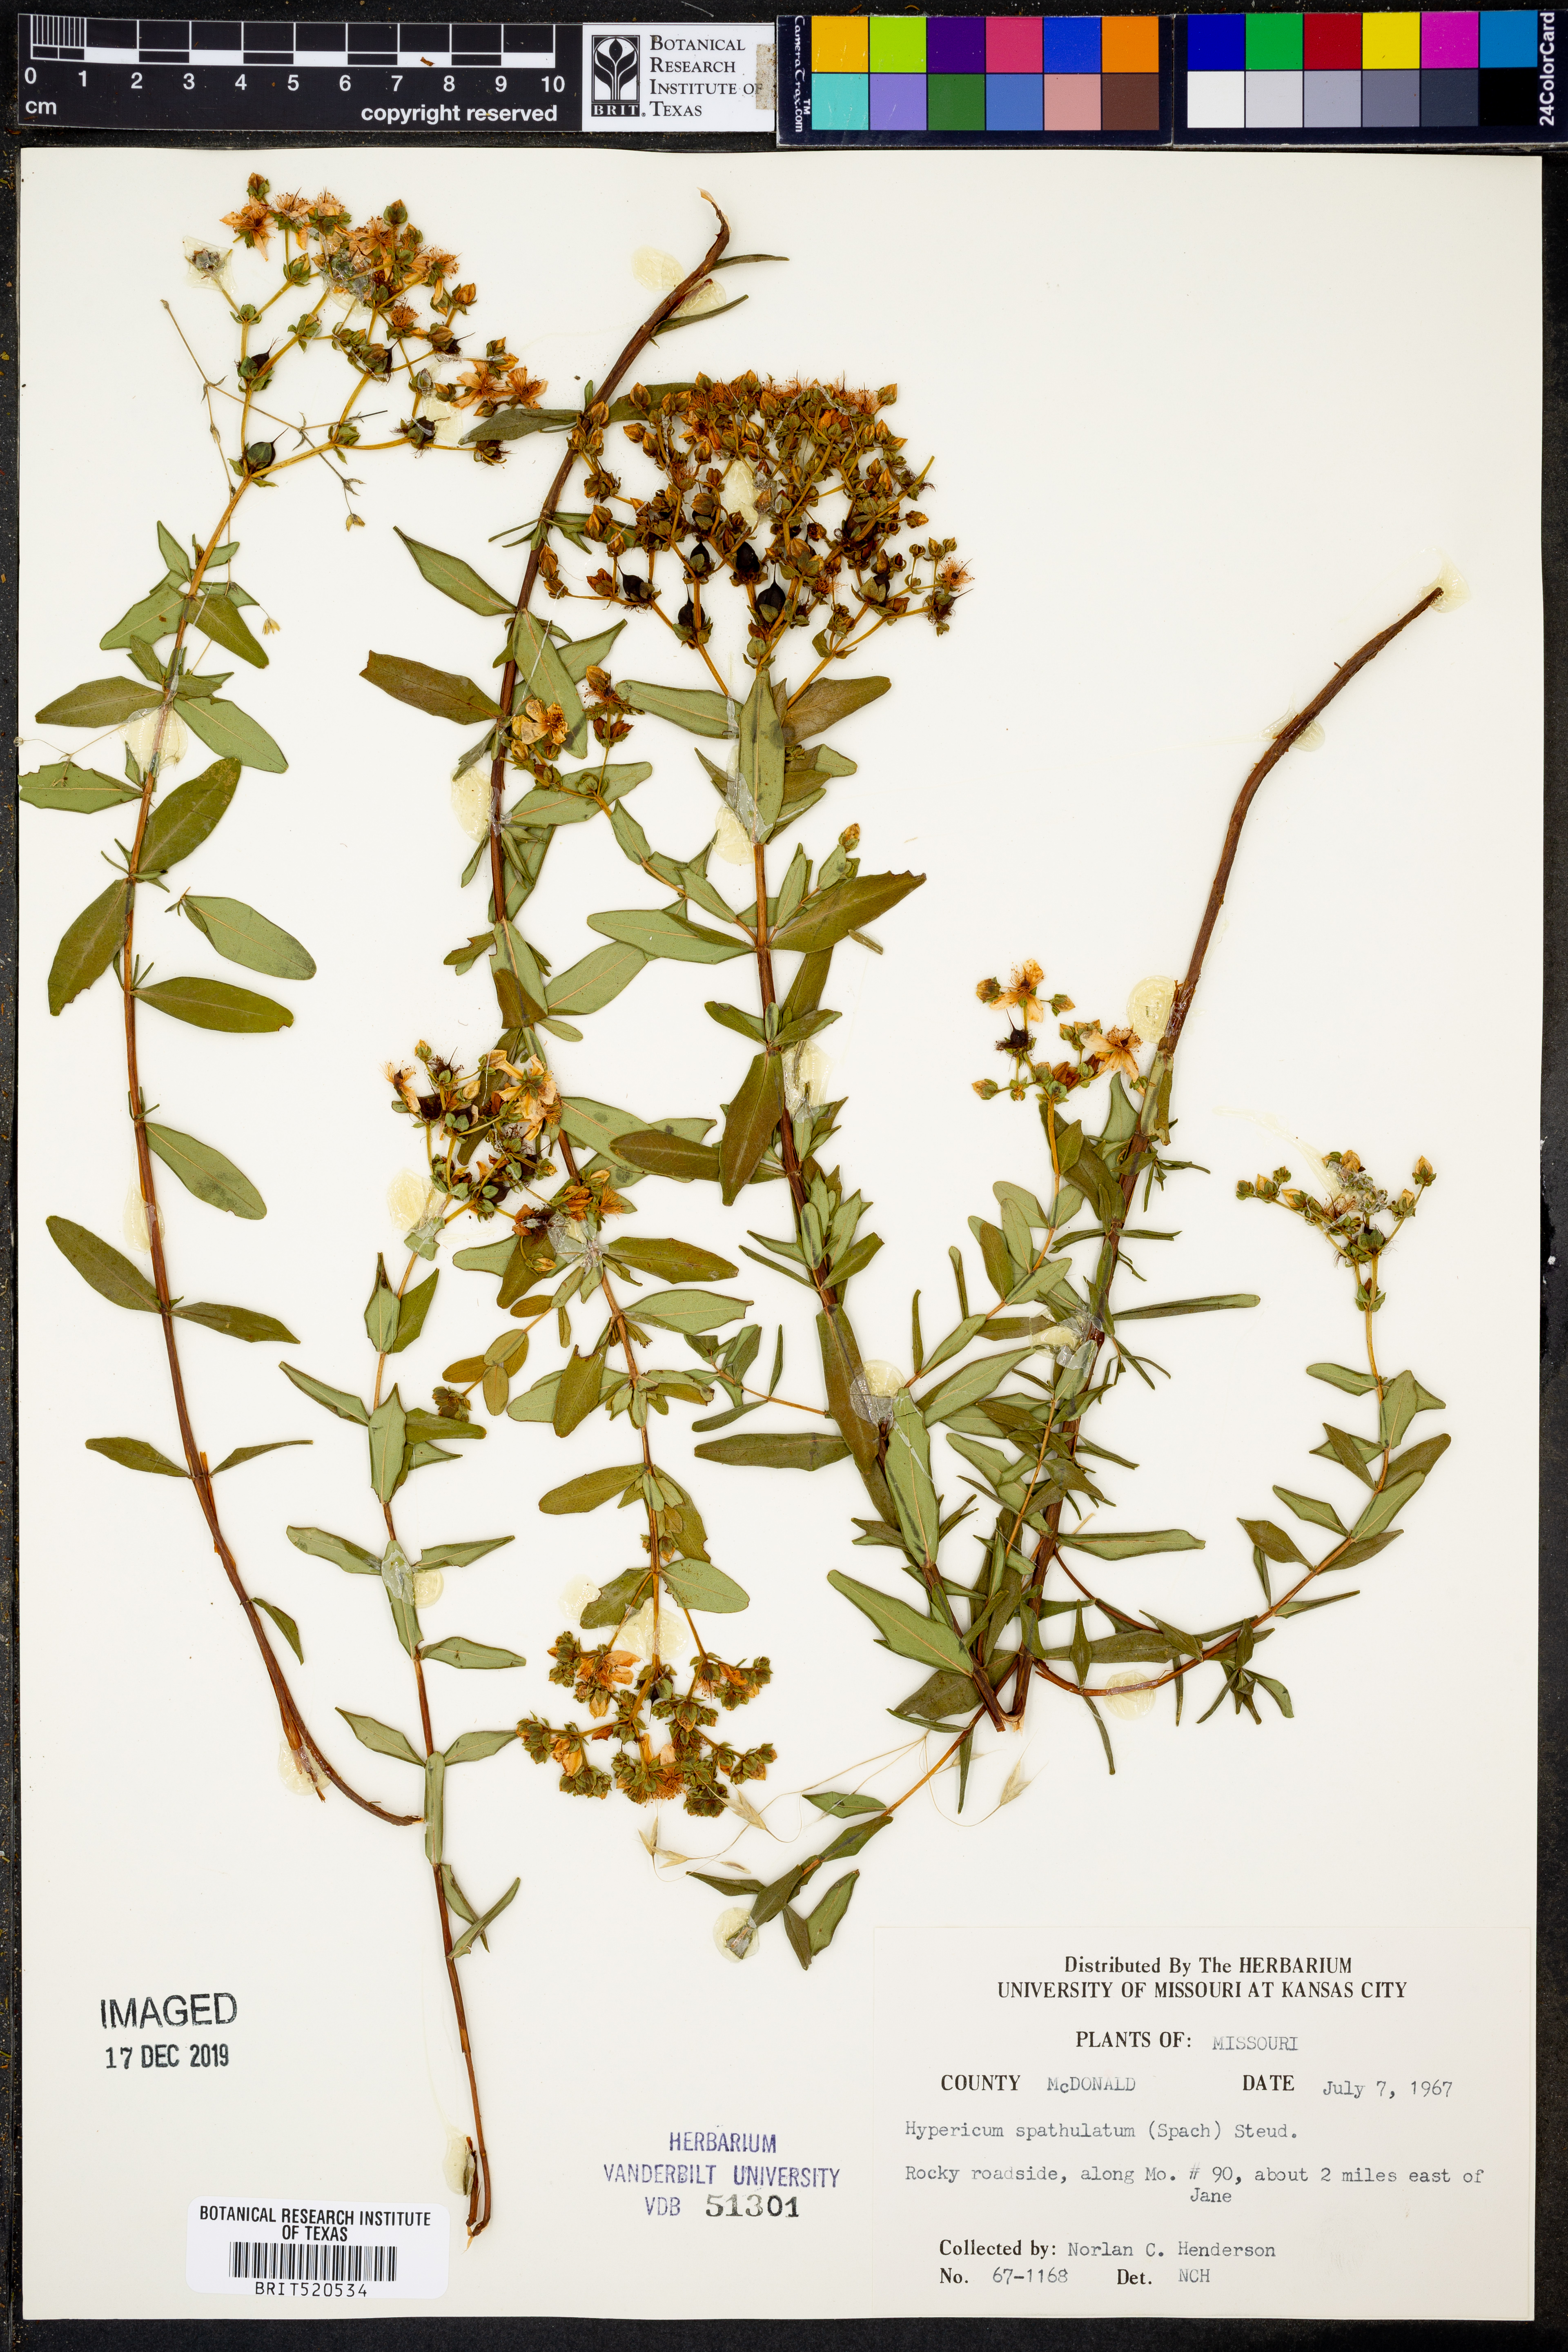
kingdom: Plantae
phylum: Tracheophyta
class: Magnoliopsida
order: Malpighiales
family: Hypericaceae
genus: Hypericum
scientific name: Hypericum
